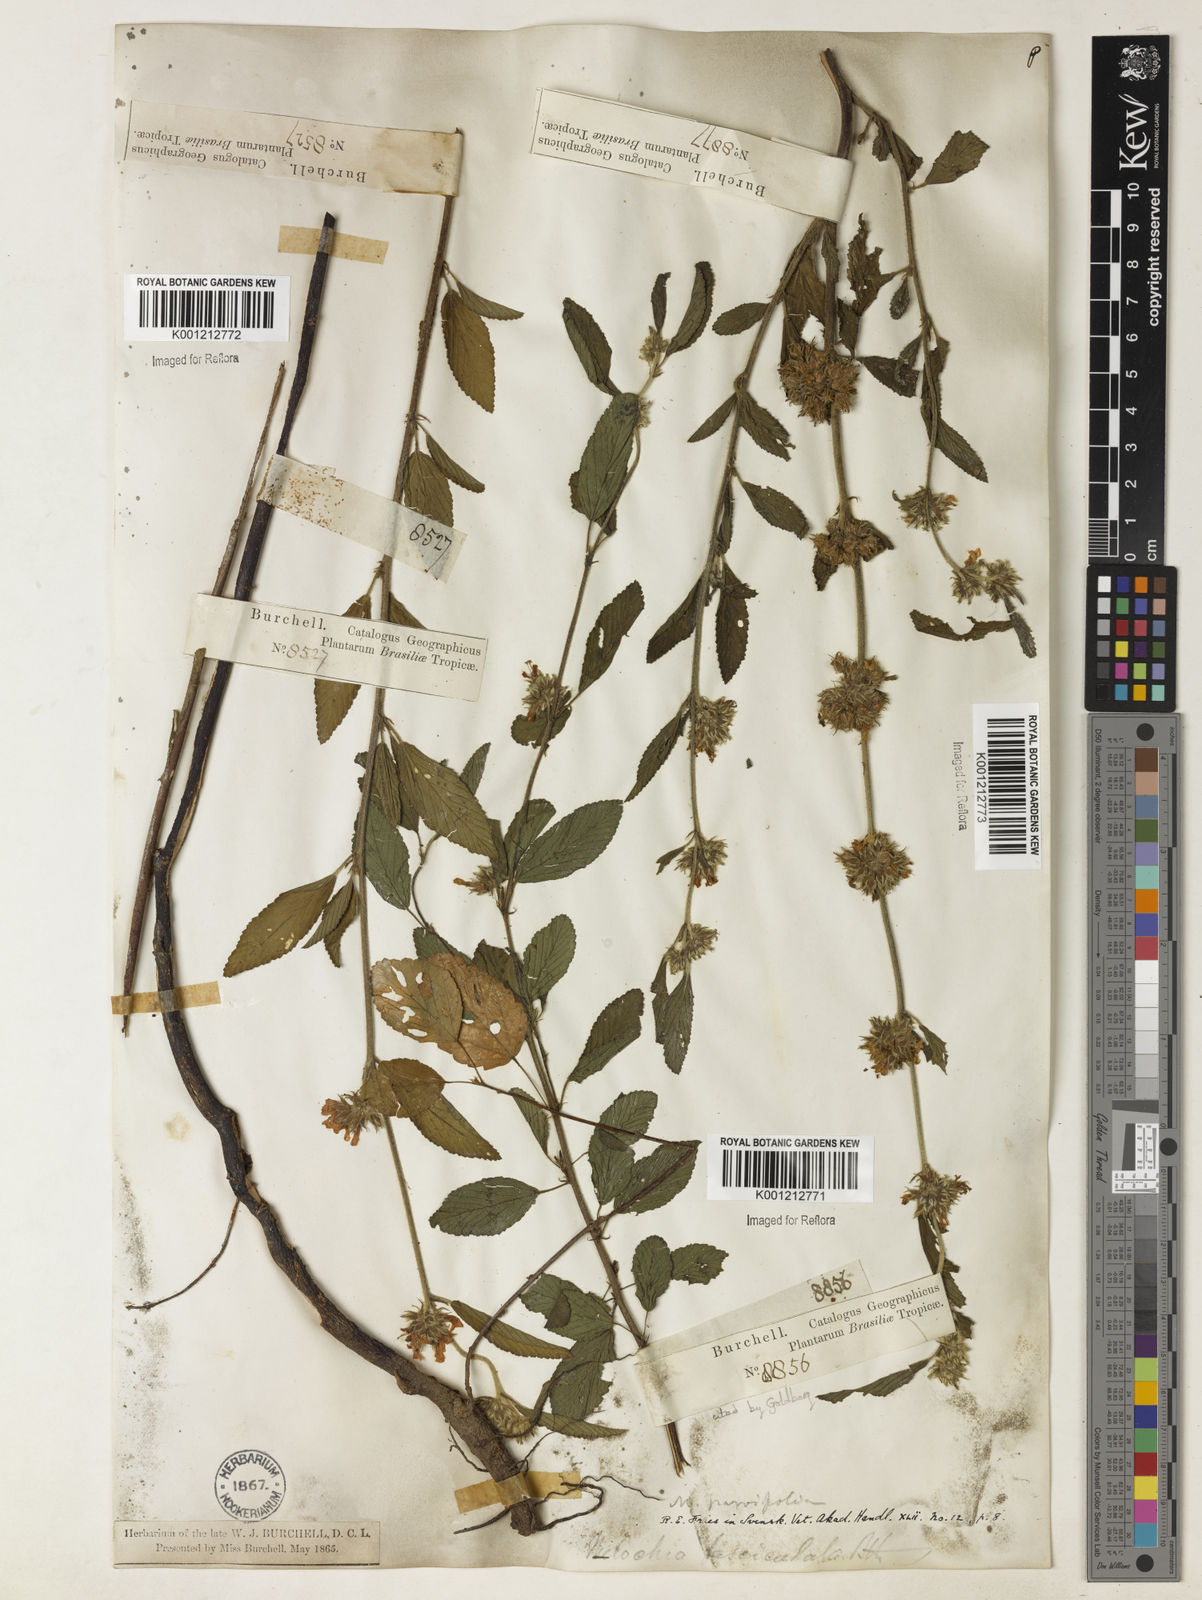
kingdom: Plantae
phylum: Tracheophyta
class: Magnoliopsida
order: Malvales
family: Malvaceae
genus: Melochia
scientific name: Melochia
